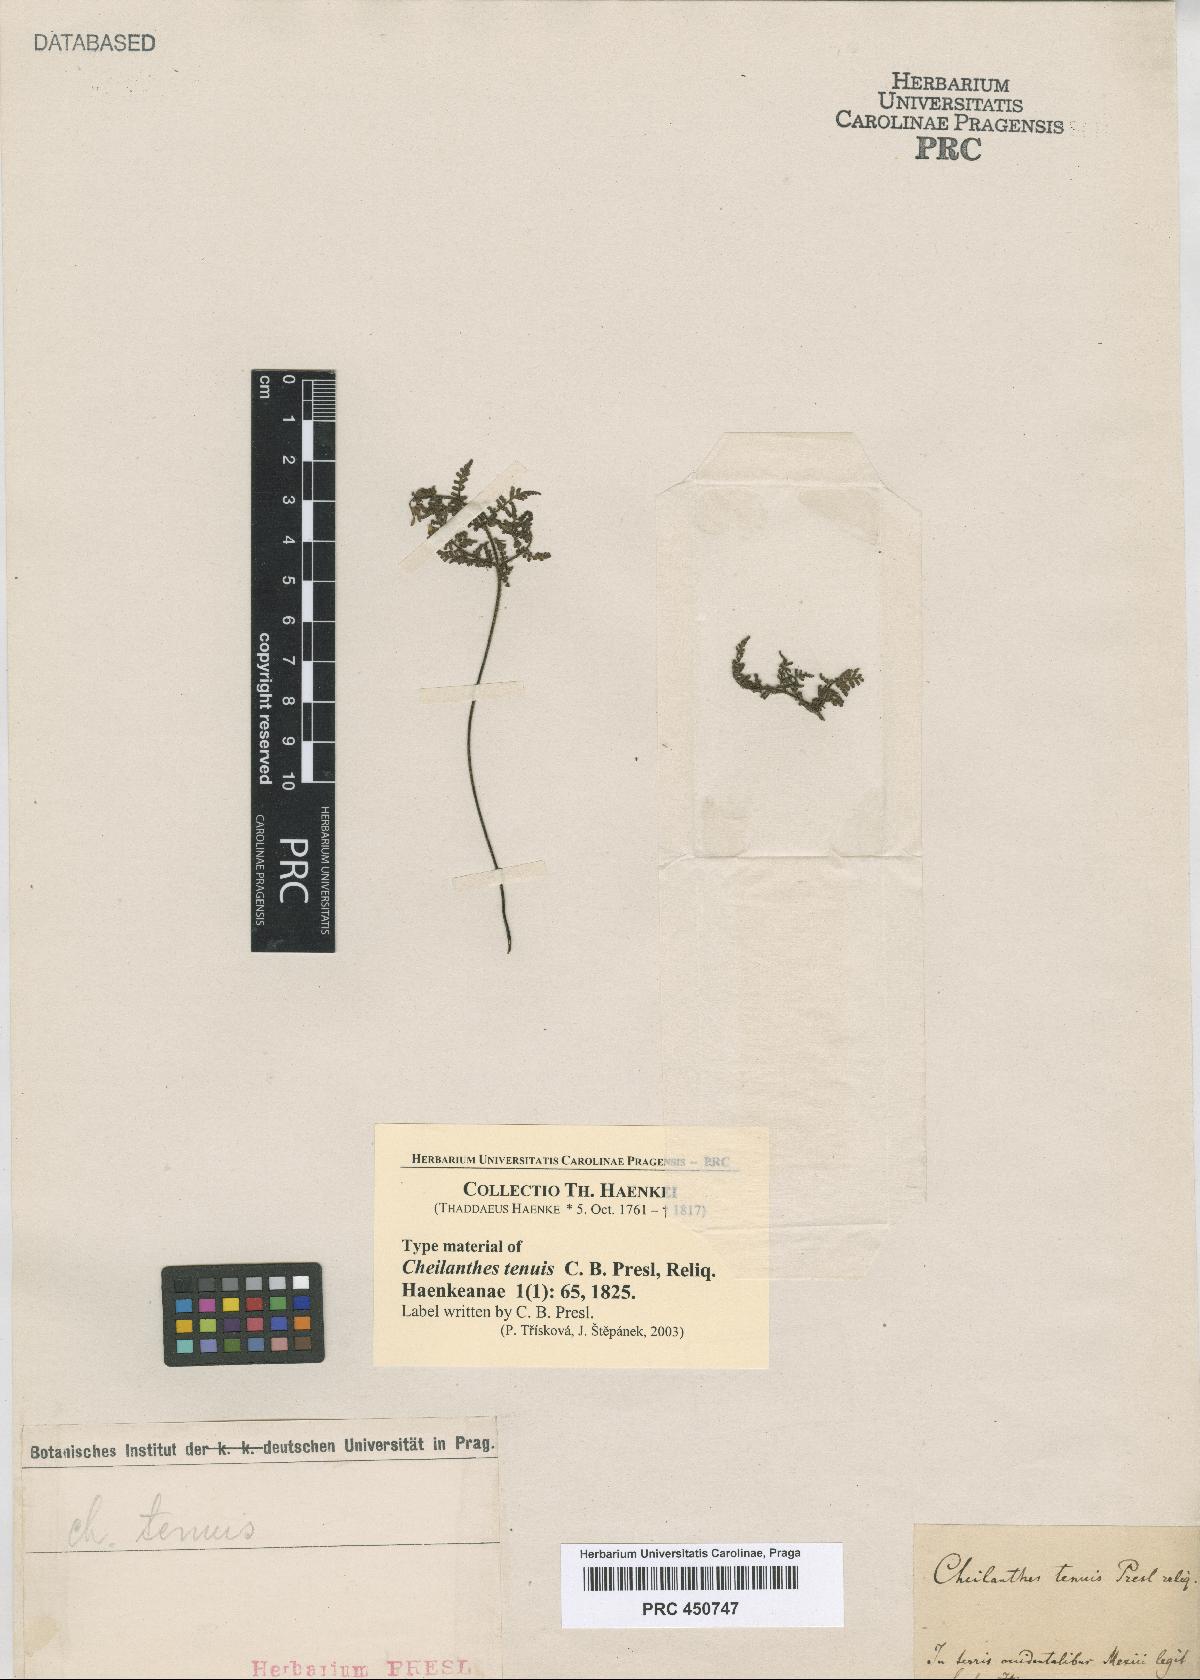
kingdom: Plantae
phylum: Tracheophyta
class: Polypodiopsida
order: Polypodiales
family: Pteridaceae
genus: Cheilanthes
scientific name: Cheilanthes tenuis
